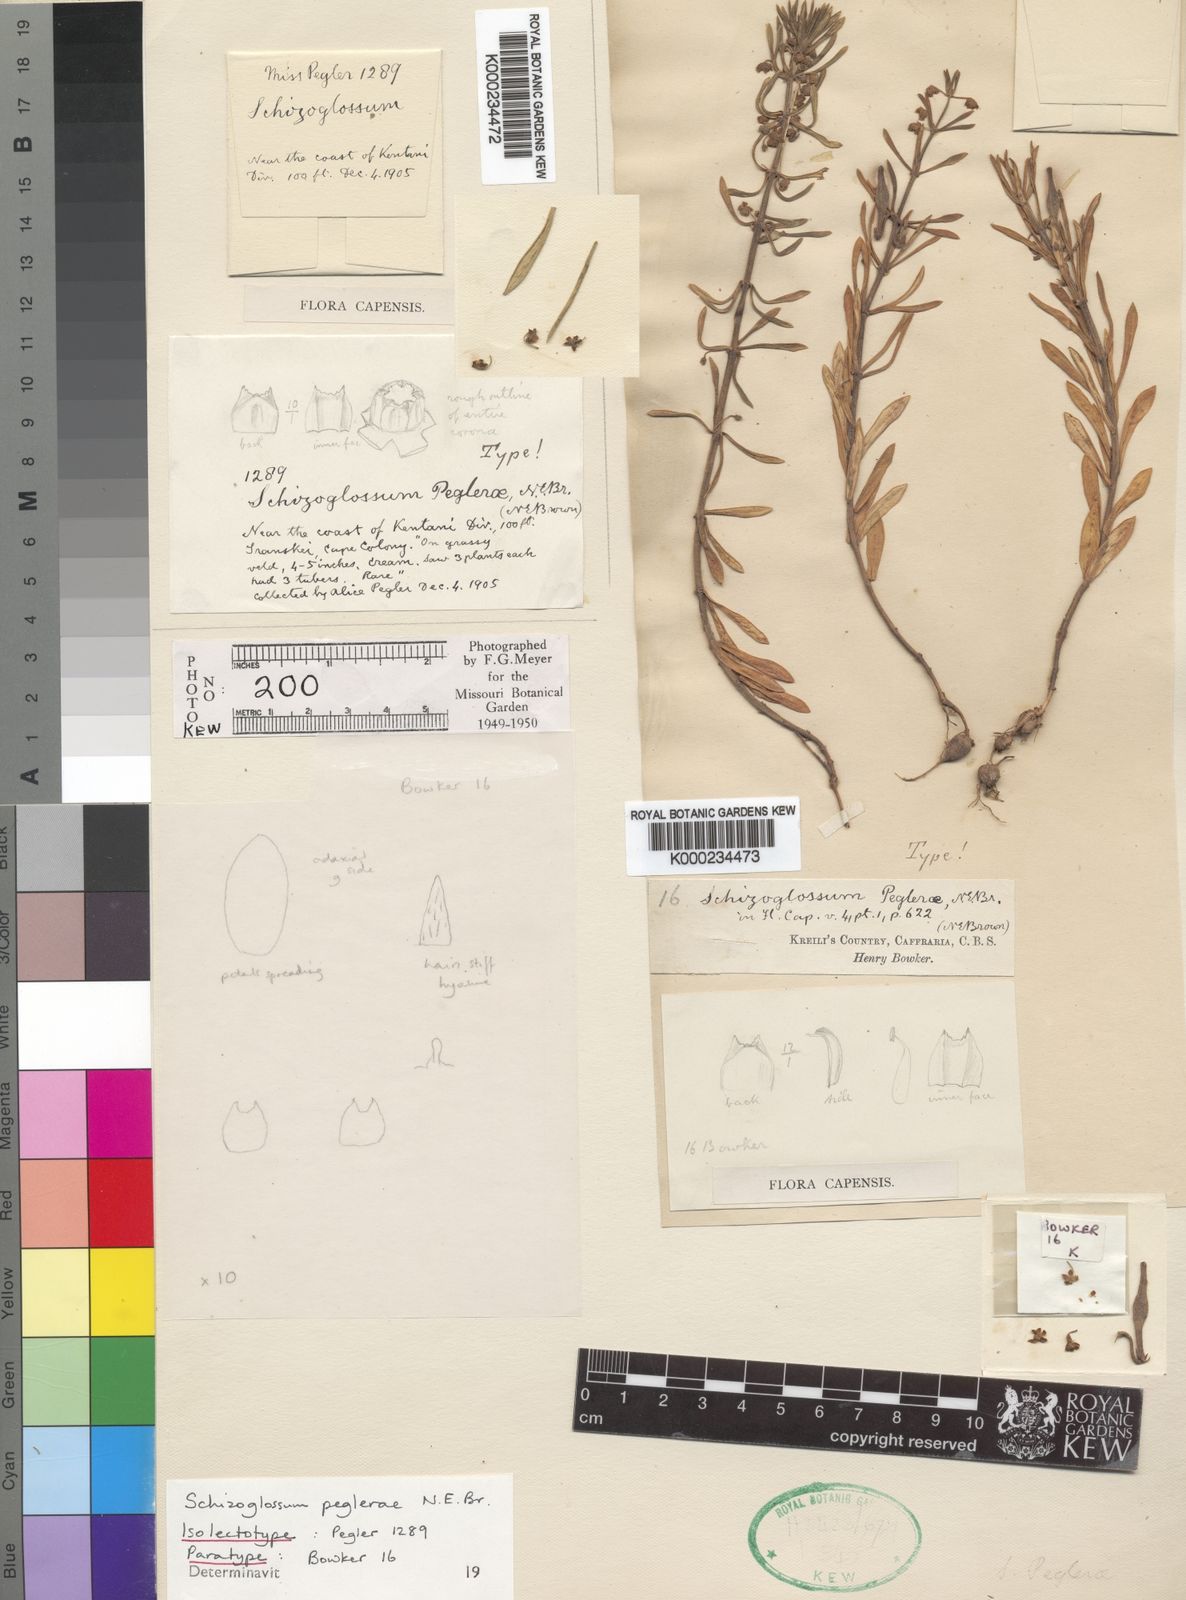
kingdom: Plantae
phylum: Tracheophyta
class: Magnoliopsida
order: Gentianales
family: Apocynaceae
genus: Schizoglossum
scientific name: Schizoglossum peglerae
